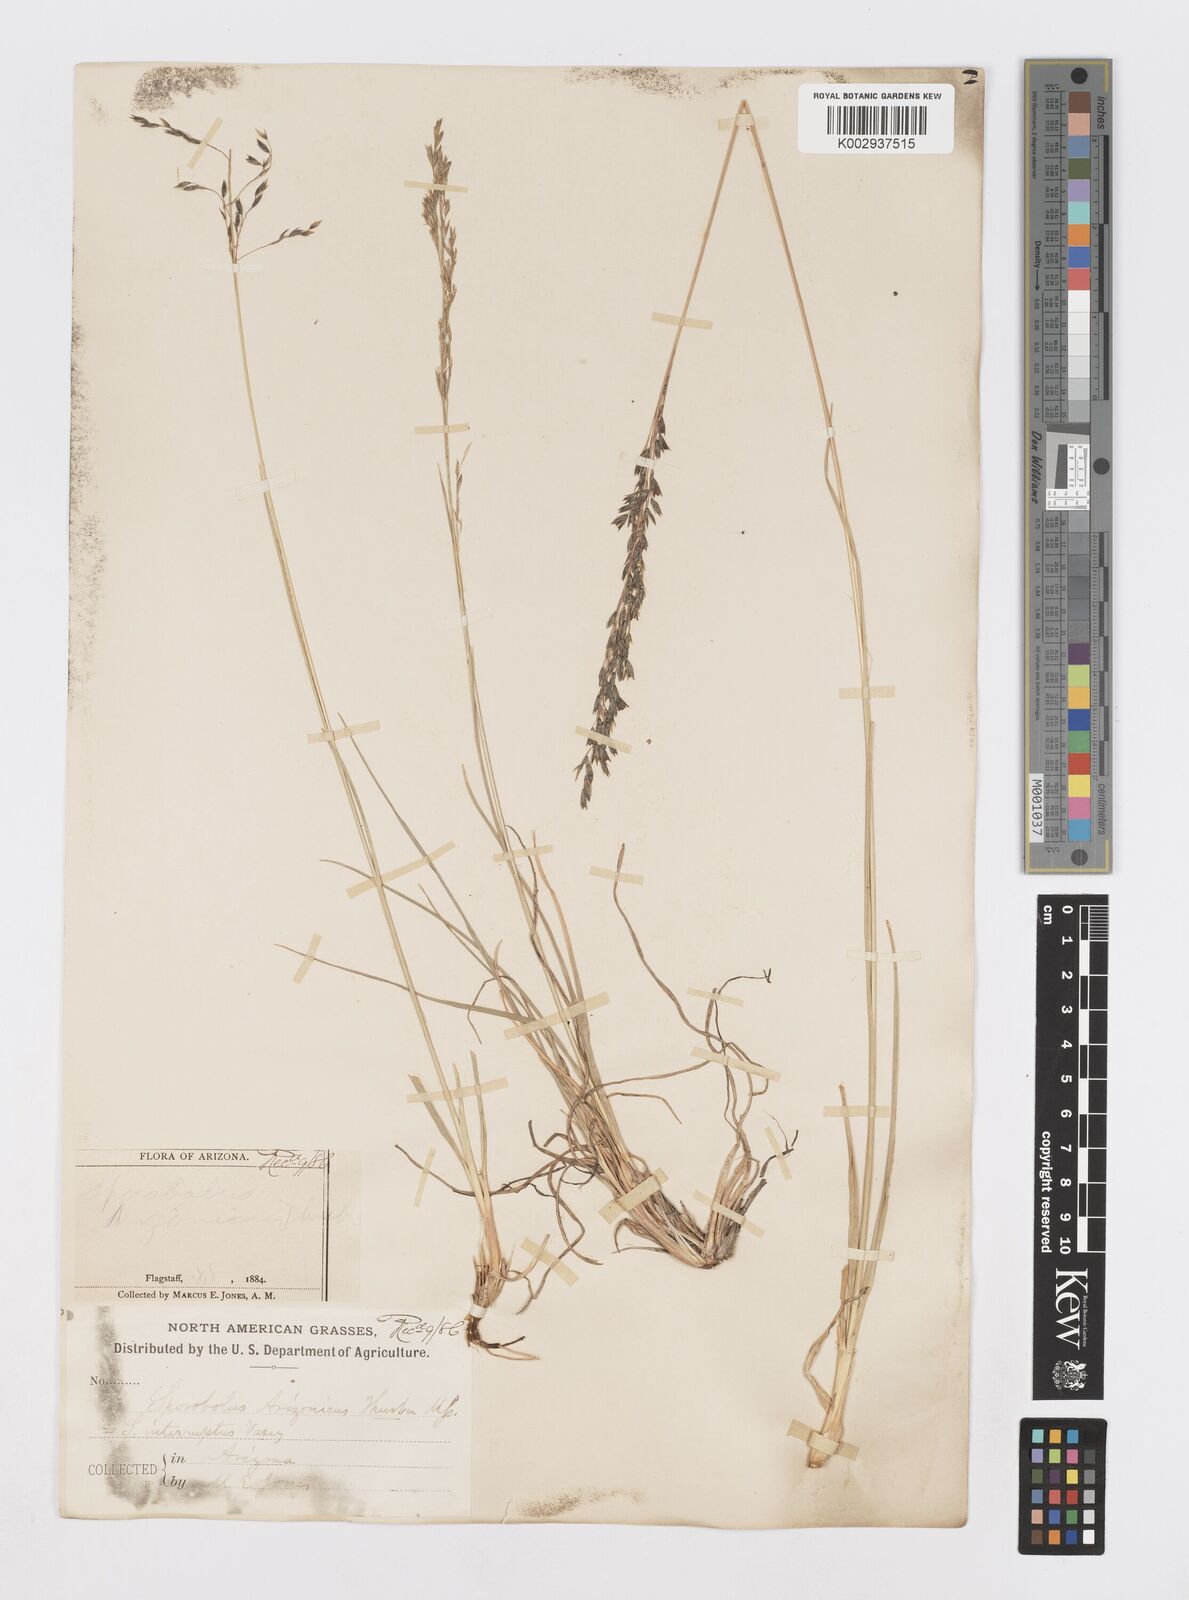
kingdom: Plantae
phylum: Tracheophyta
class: Liliopsida
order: Poales
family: Poaceae
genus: Sporobolus
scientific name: Sporobolus interruptus
